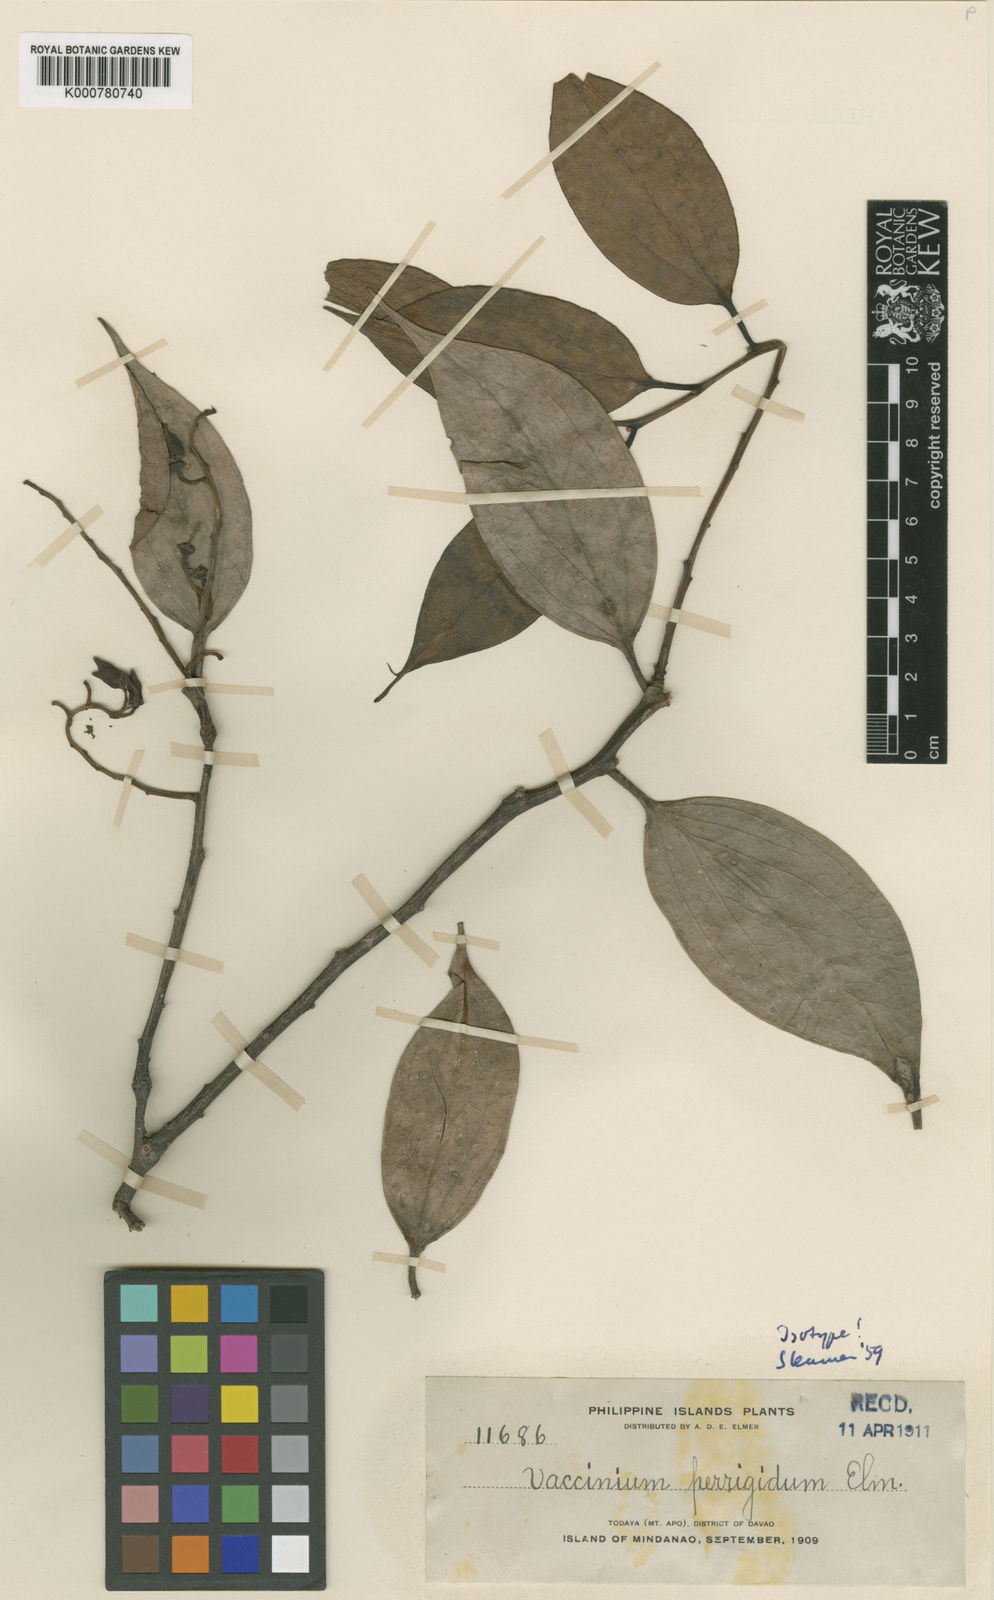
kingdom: Plantae
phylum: Tracheophyta
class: Magnoliopsida
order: Ericales
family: Ericaceae
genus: Vaccinium
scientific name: Vaccinium perrigidum
